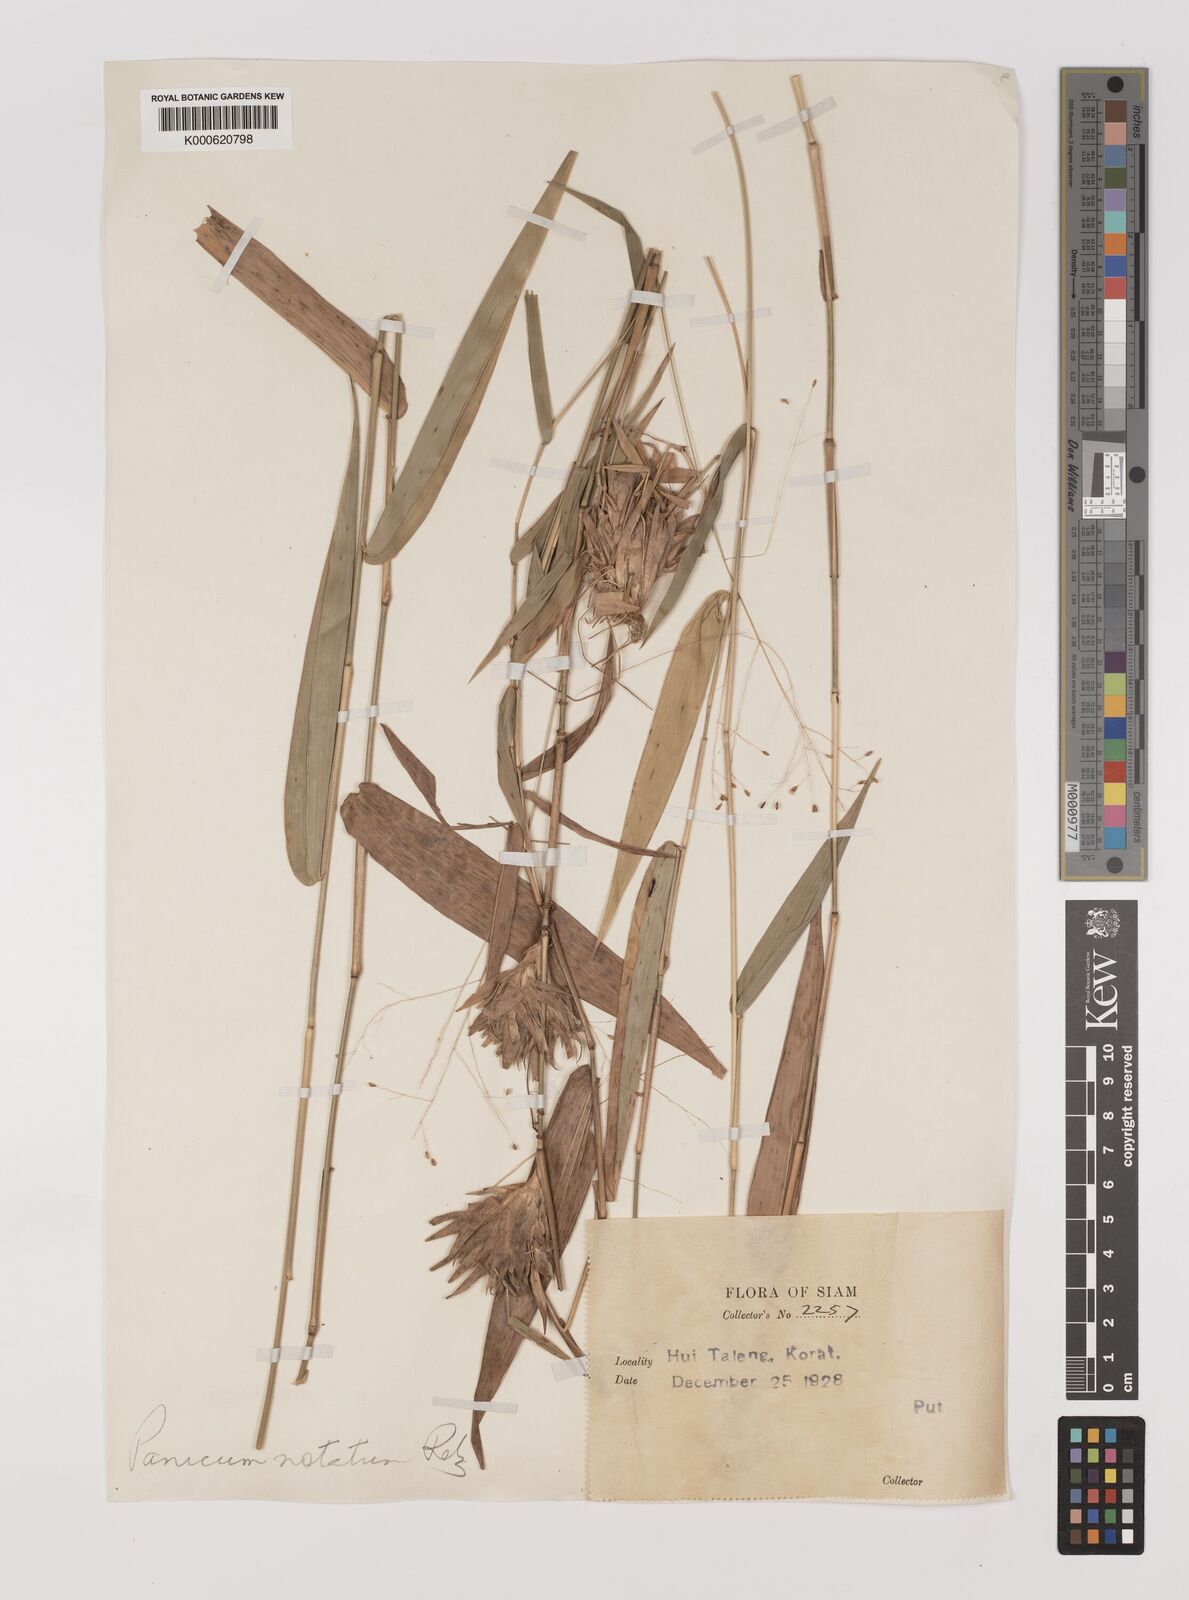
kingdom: Plantae
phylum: Tracheophyta
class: Liliopsida
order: Poales
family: Poaceae
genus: Panicum
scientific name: Panicum notatum
